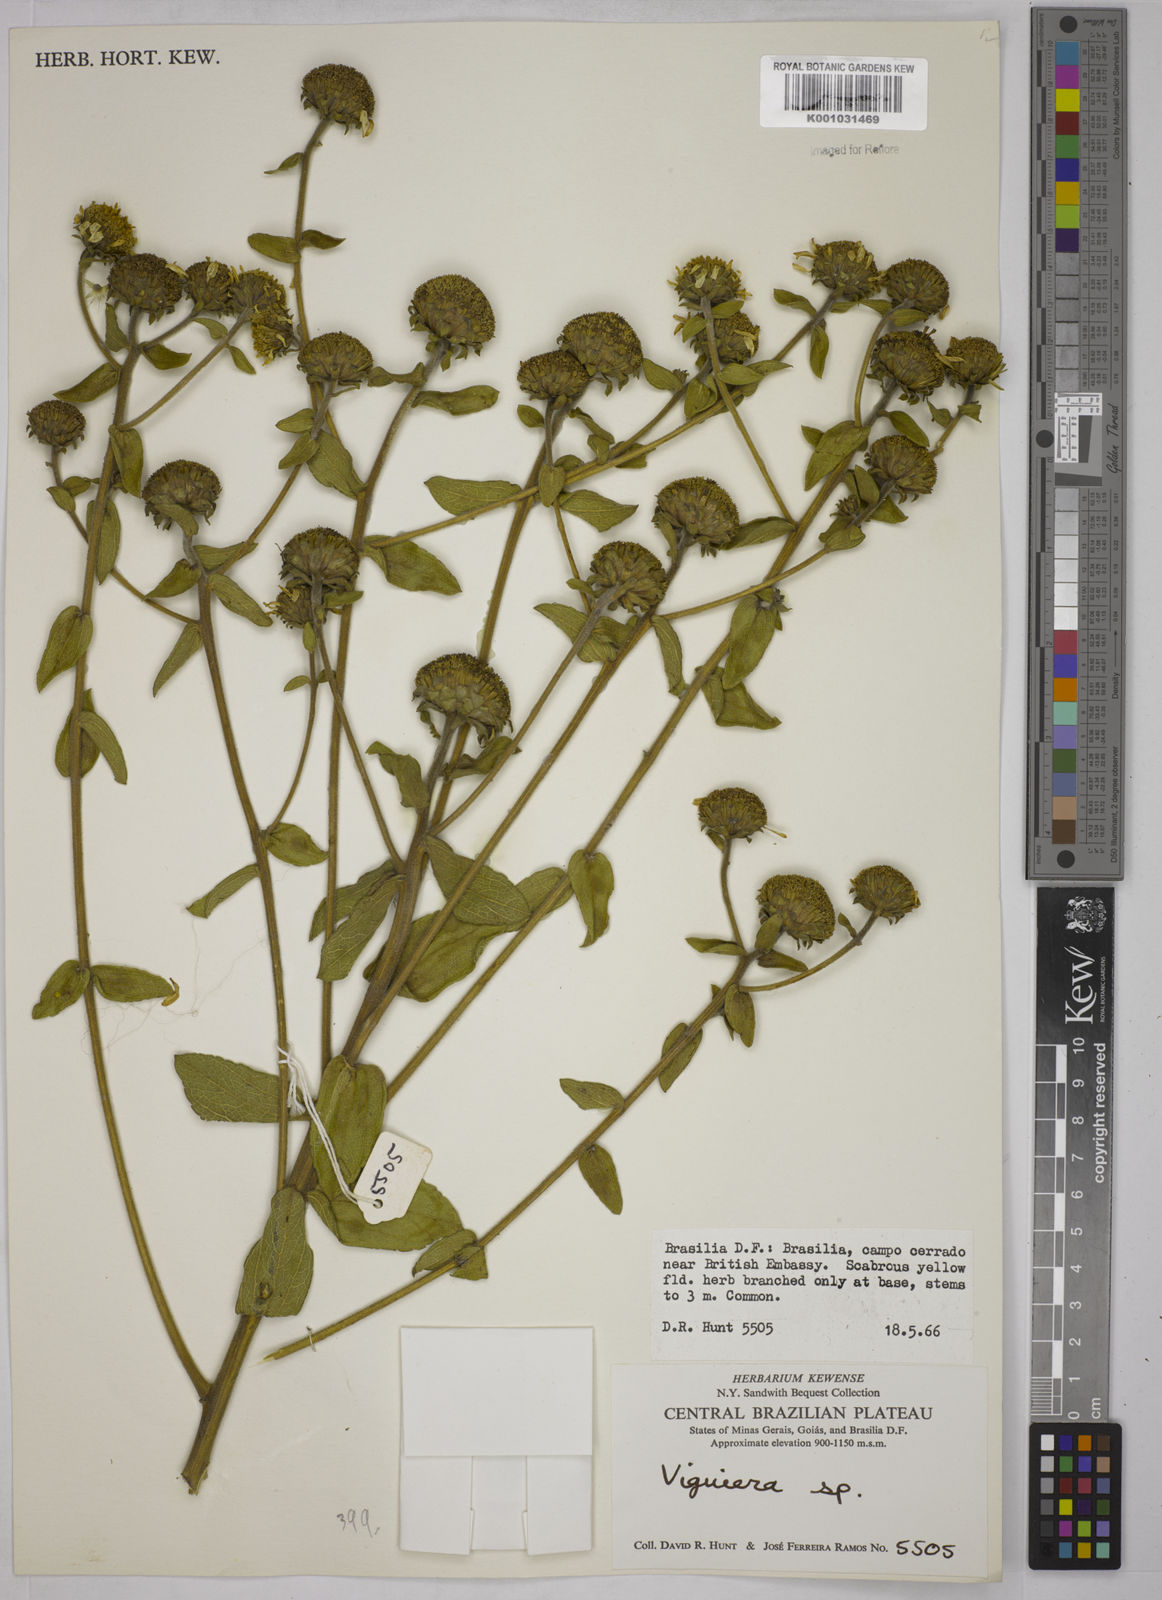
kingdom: Plantae
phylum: Tracheophyta
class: Magnoliopsida
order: Asterales
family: Asteraceae
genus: Aldama
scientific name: Aldama robusta
